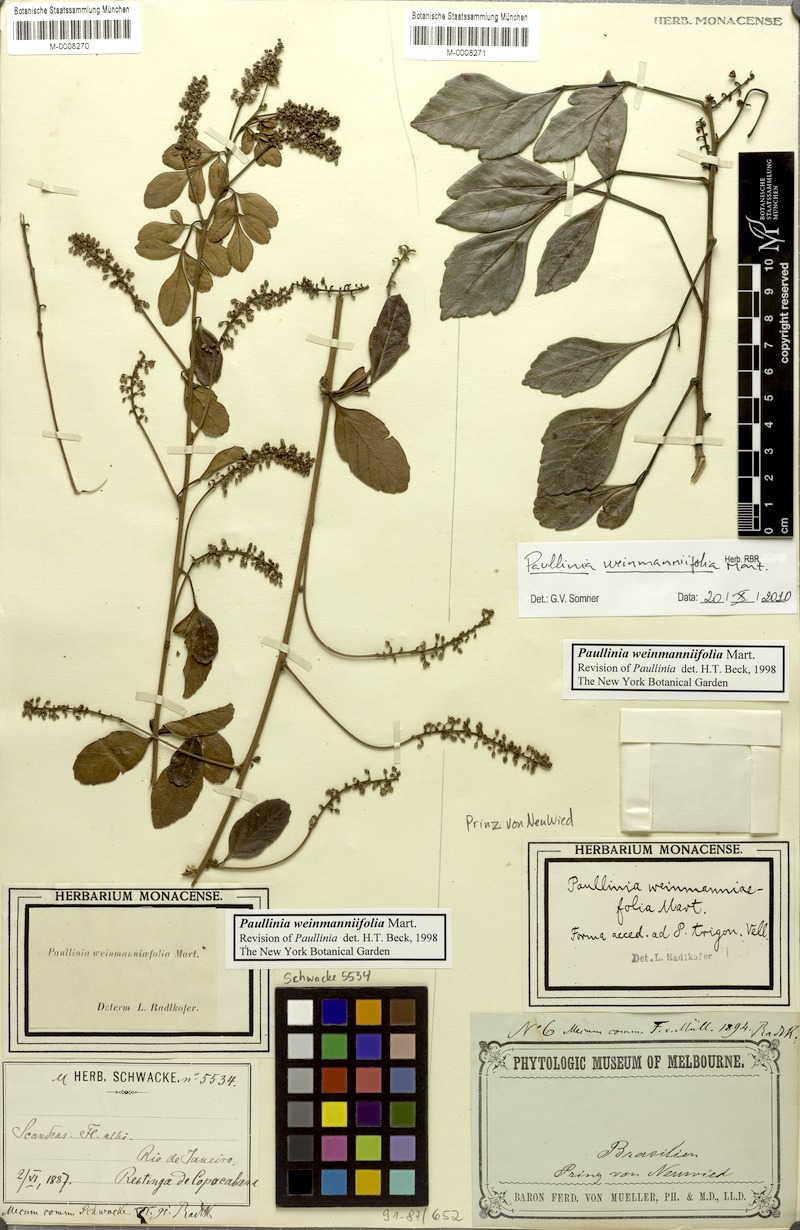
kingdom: Plantae
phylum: Tracheophyta
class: Magnoliopsida
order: Sapindales
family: Sapindaceae
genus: Paullinia
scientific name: Paullinia weinmanniifolia
